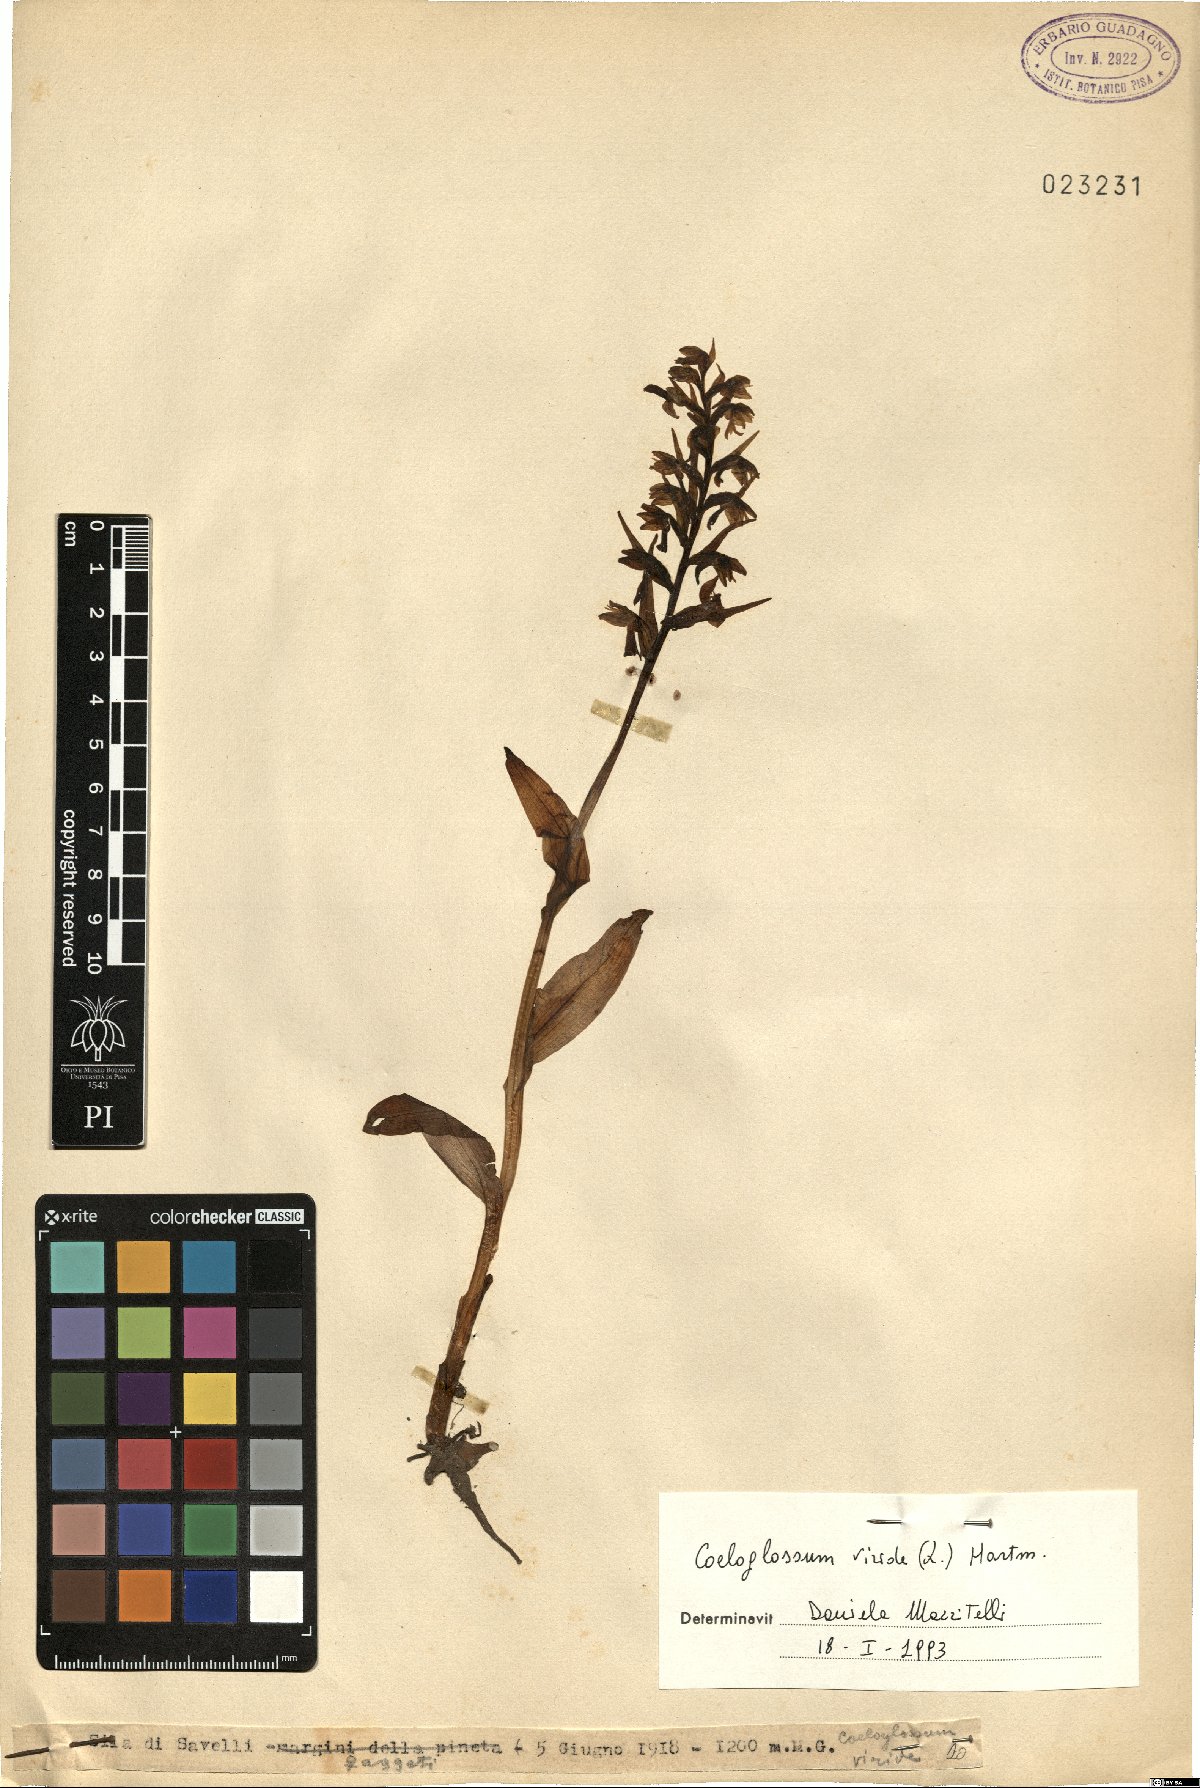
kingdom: Plantae
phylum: Tracheophyta
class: Liliopsida
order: Asparagales
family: Orchidaceae
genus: Dactylorhiza
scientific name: Dactylorhiza viridis
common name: Longbract frog orchid
